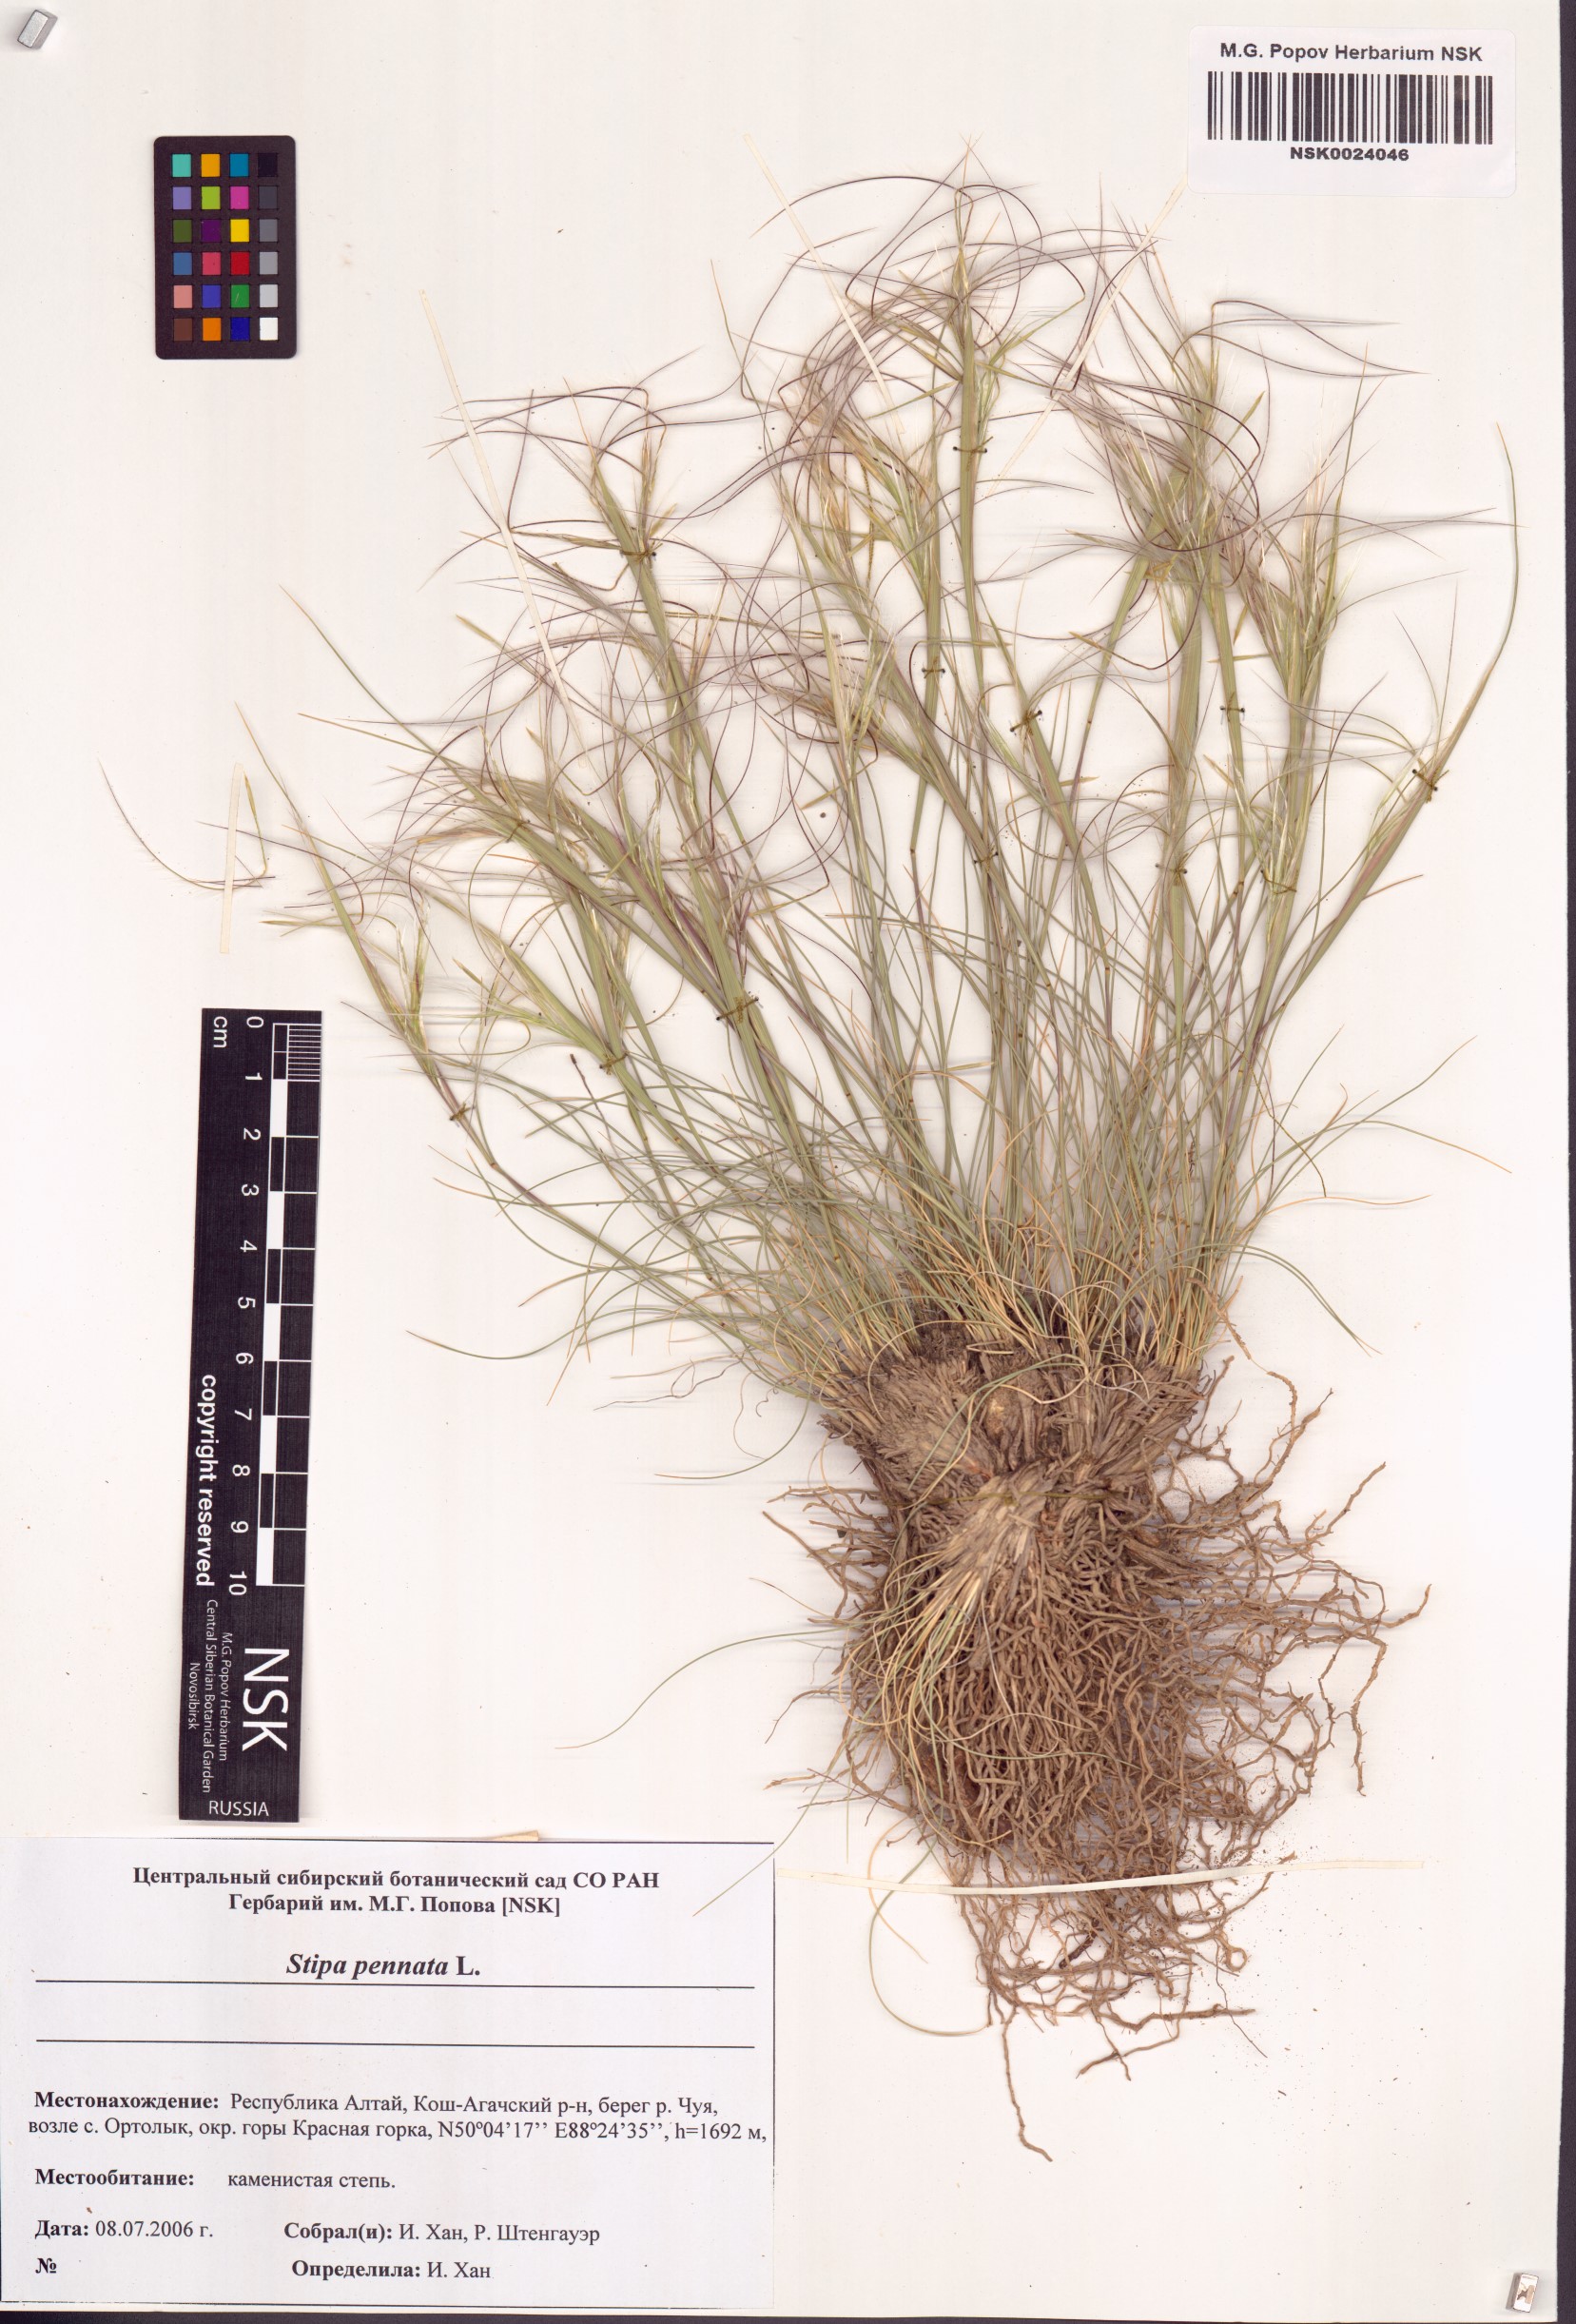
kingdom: Plantae
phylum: Tracheophyta
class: Liliopsida
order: Poales
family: Poaceae
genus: Stipa
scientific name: Stipa pennata
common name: European feather grass
